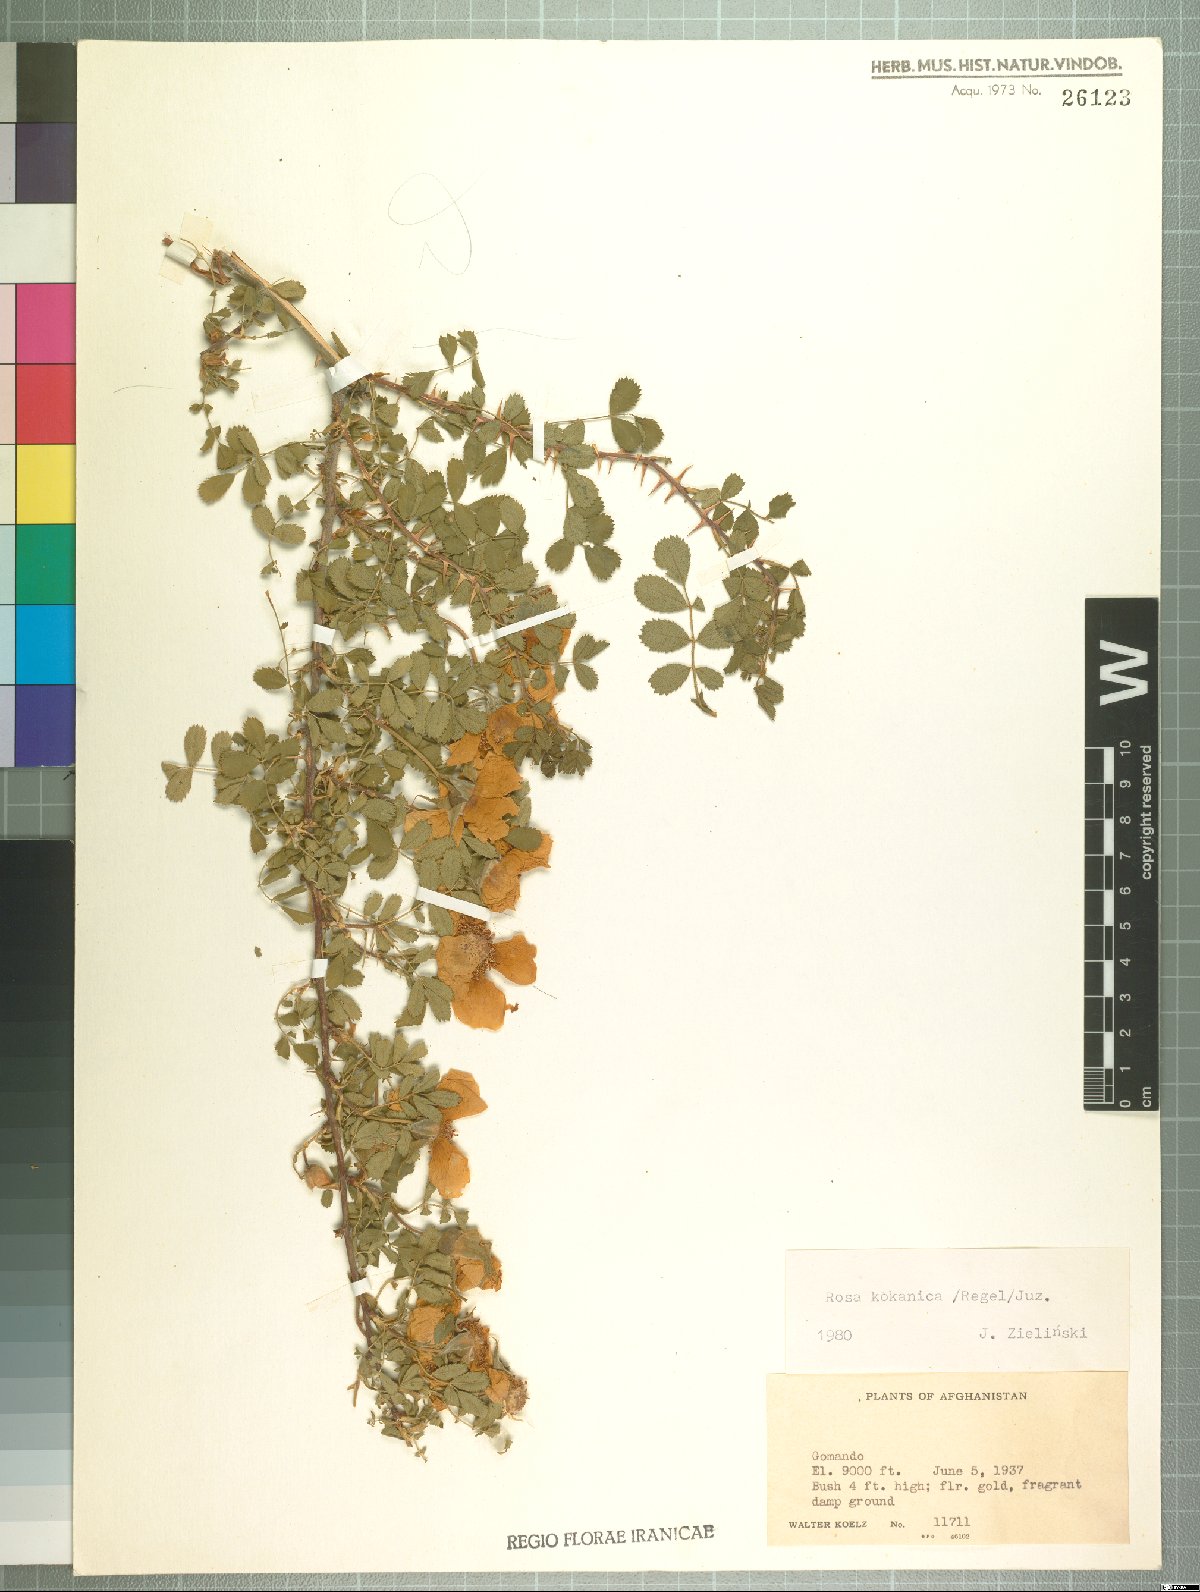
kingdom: Plantae
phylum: Tracheophyta
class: Magnoliopsida
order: Rosales
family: Rosaceae
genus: Rosa
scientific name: Rosa kokanica
